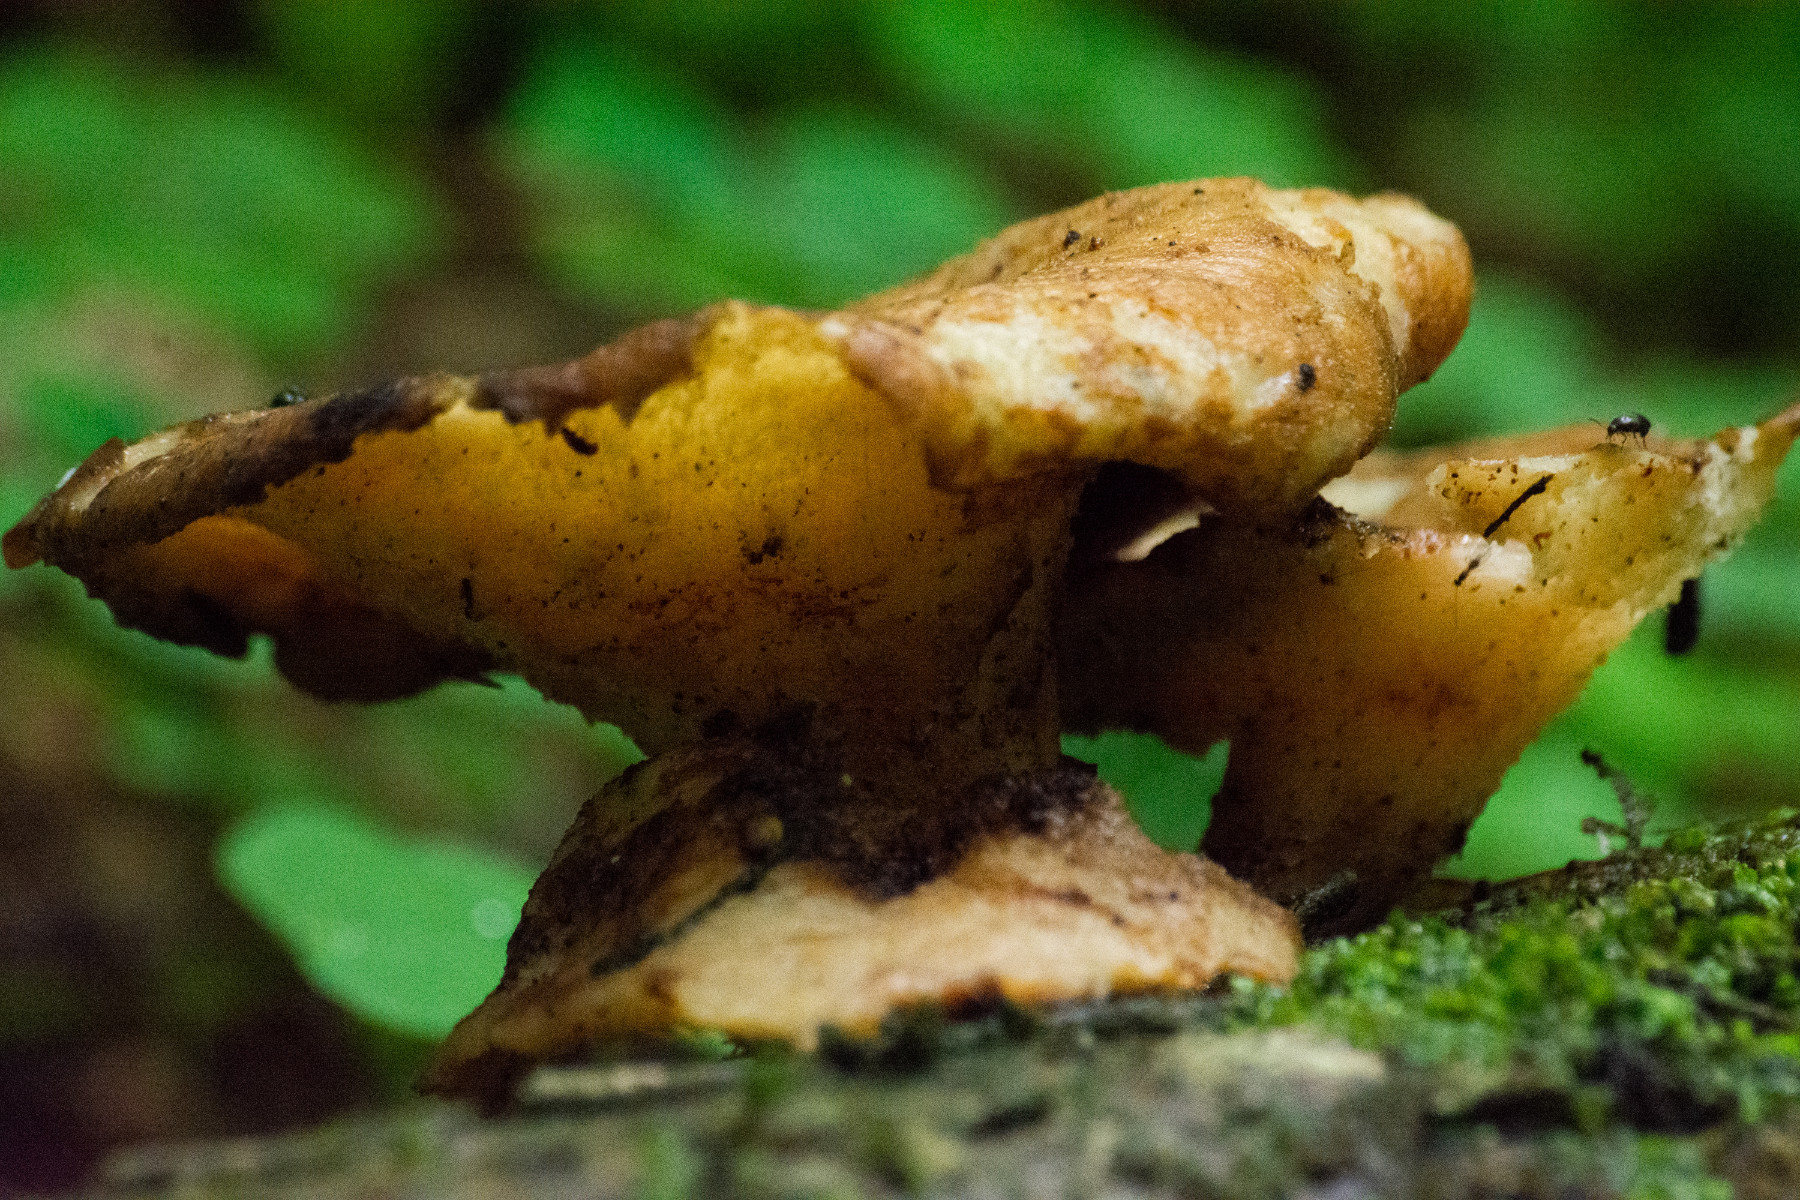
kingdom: Fungi
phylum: Basidiomycota
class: Agaricomycetes
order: Polyporales
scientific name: Polyporales
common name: poresvampordenen
